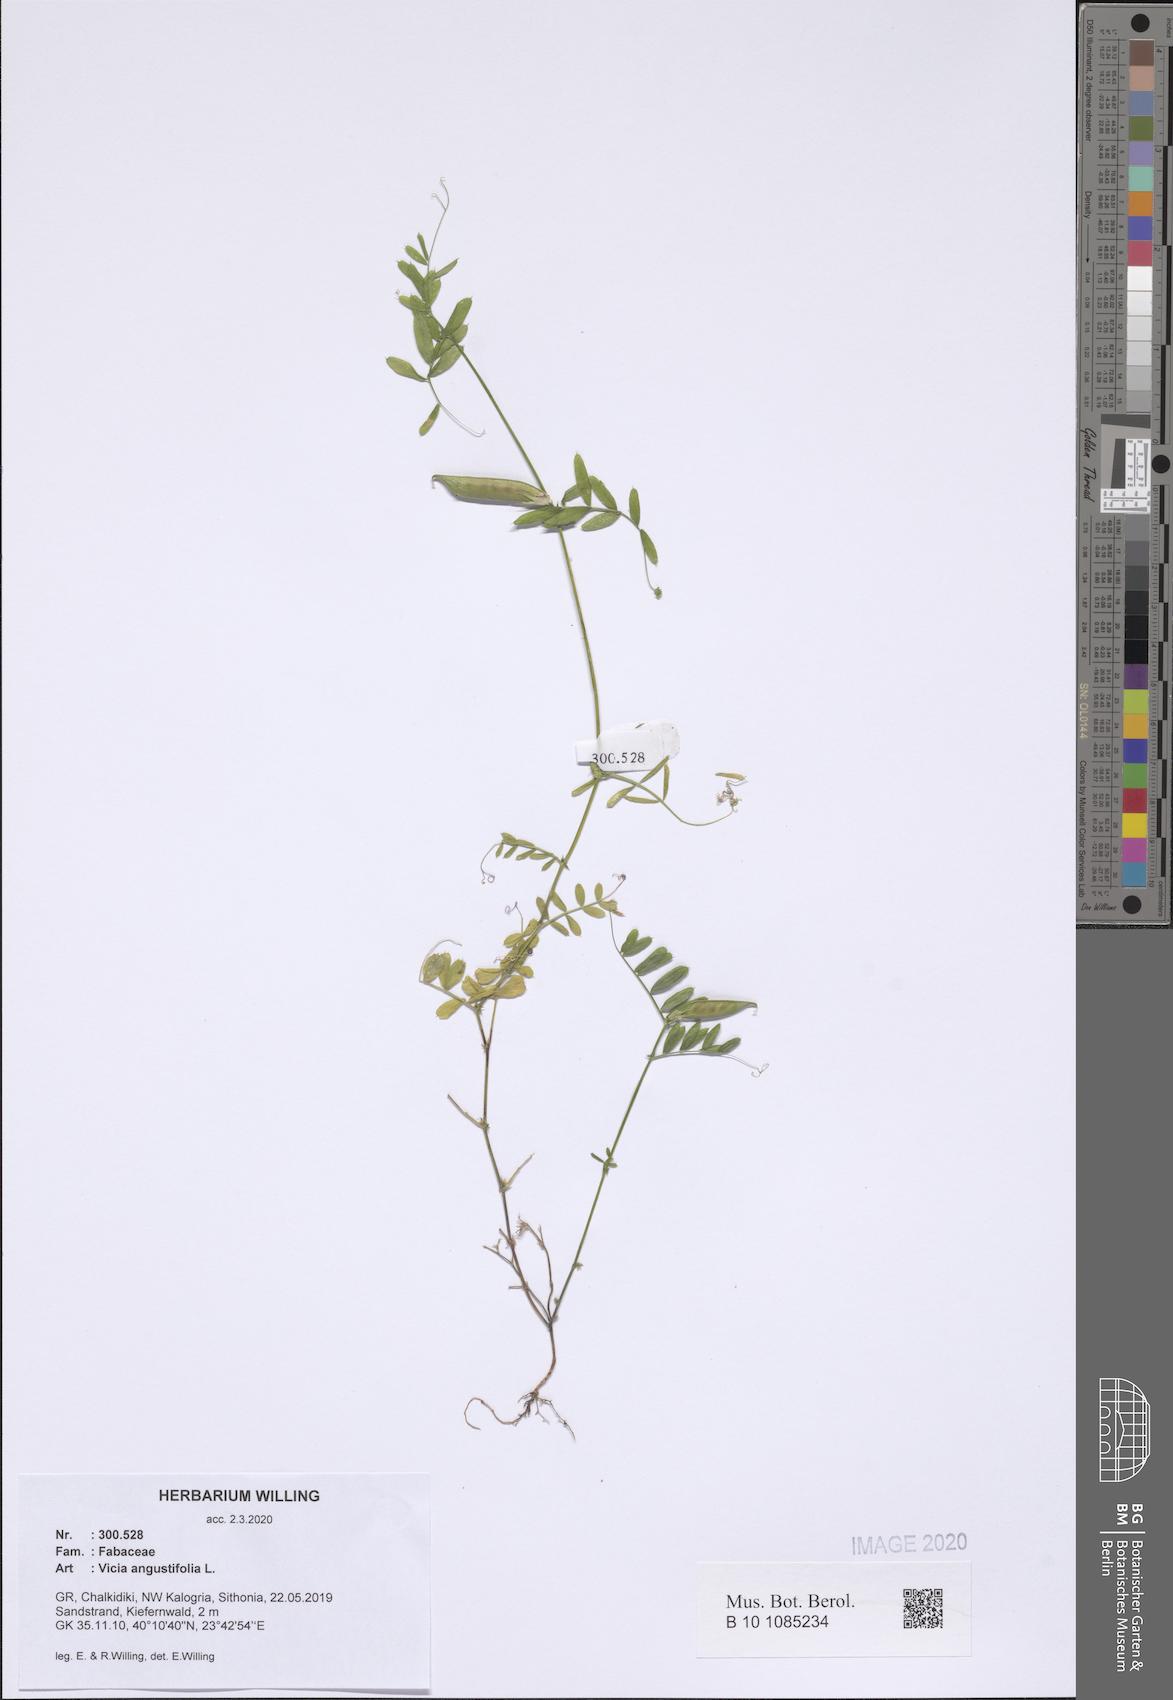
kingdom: Plantae
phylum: Tracheophyta
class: Magnoliopsida
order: Fabales
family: Fabaceae
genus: Vicia
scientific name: Vicia sativa
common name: Garden vetch
